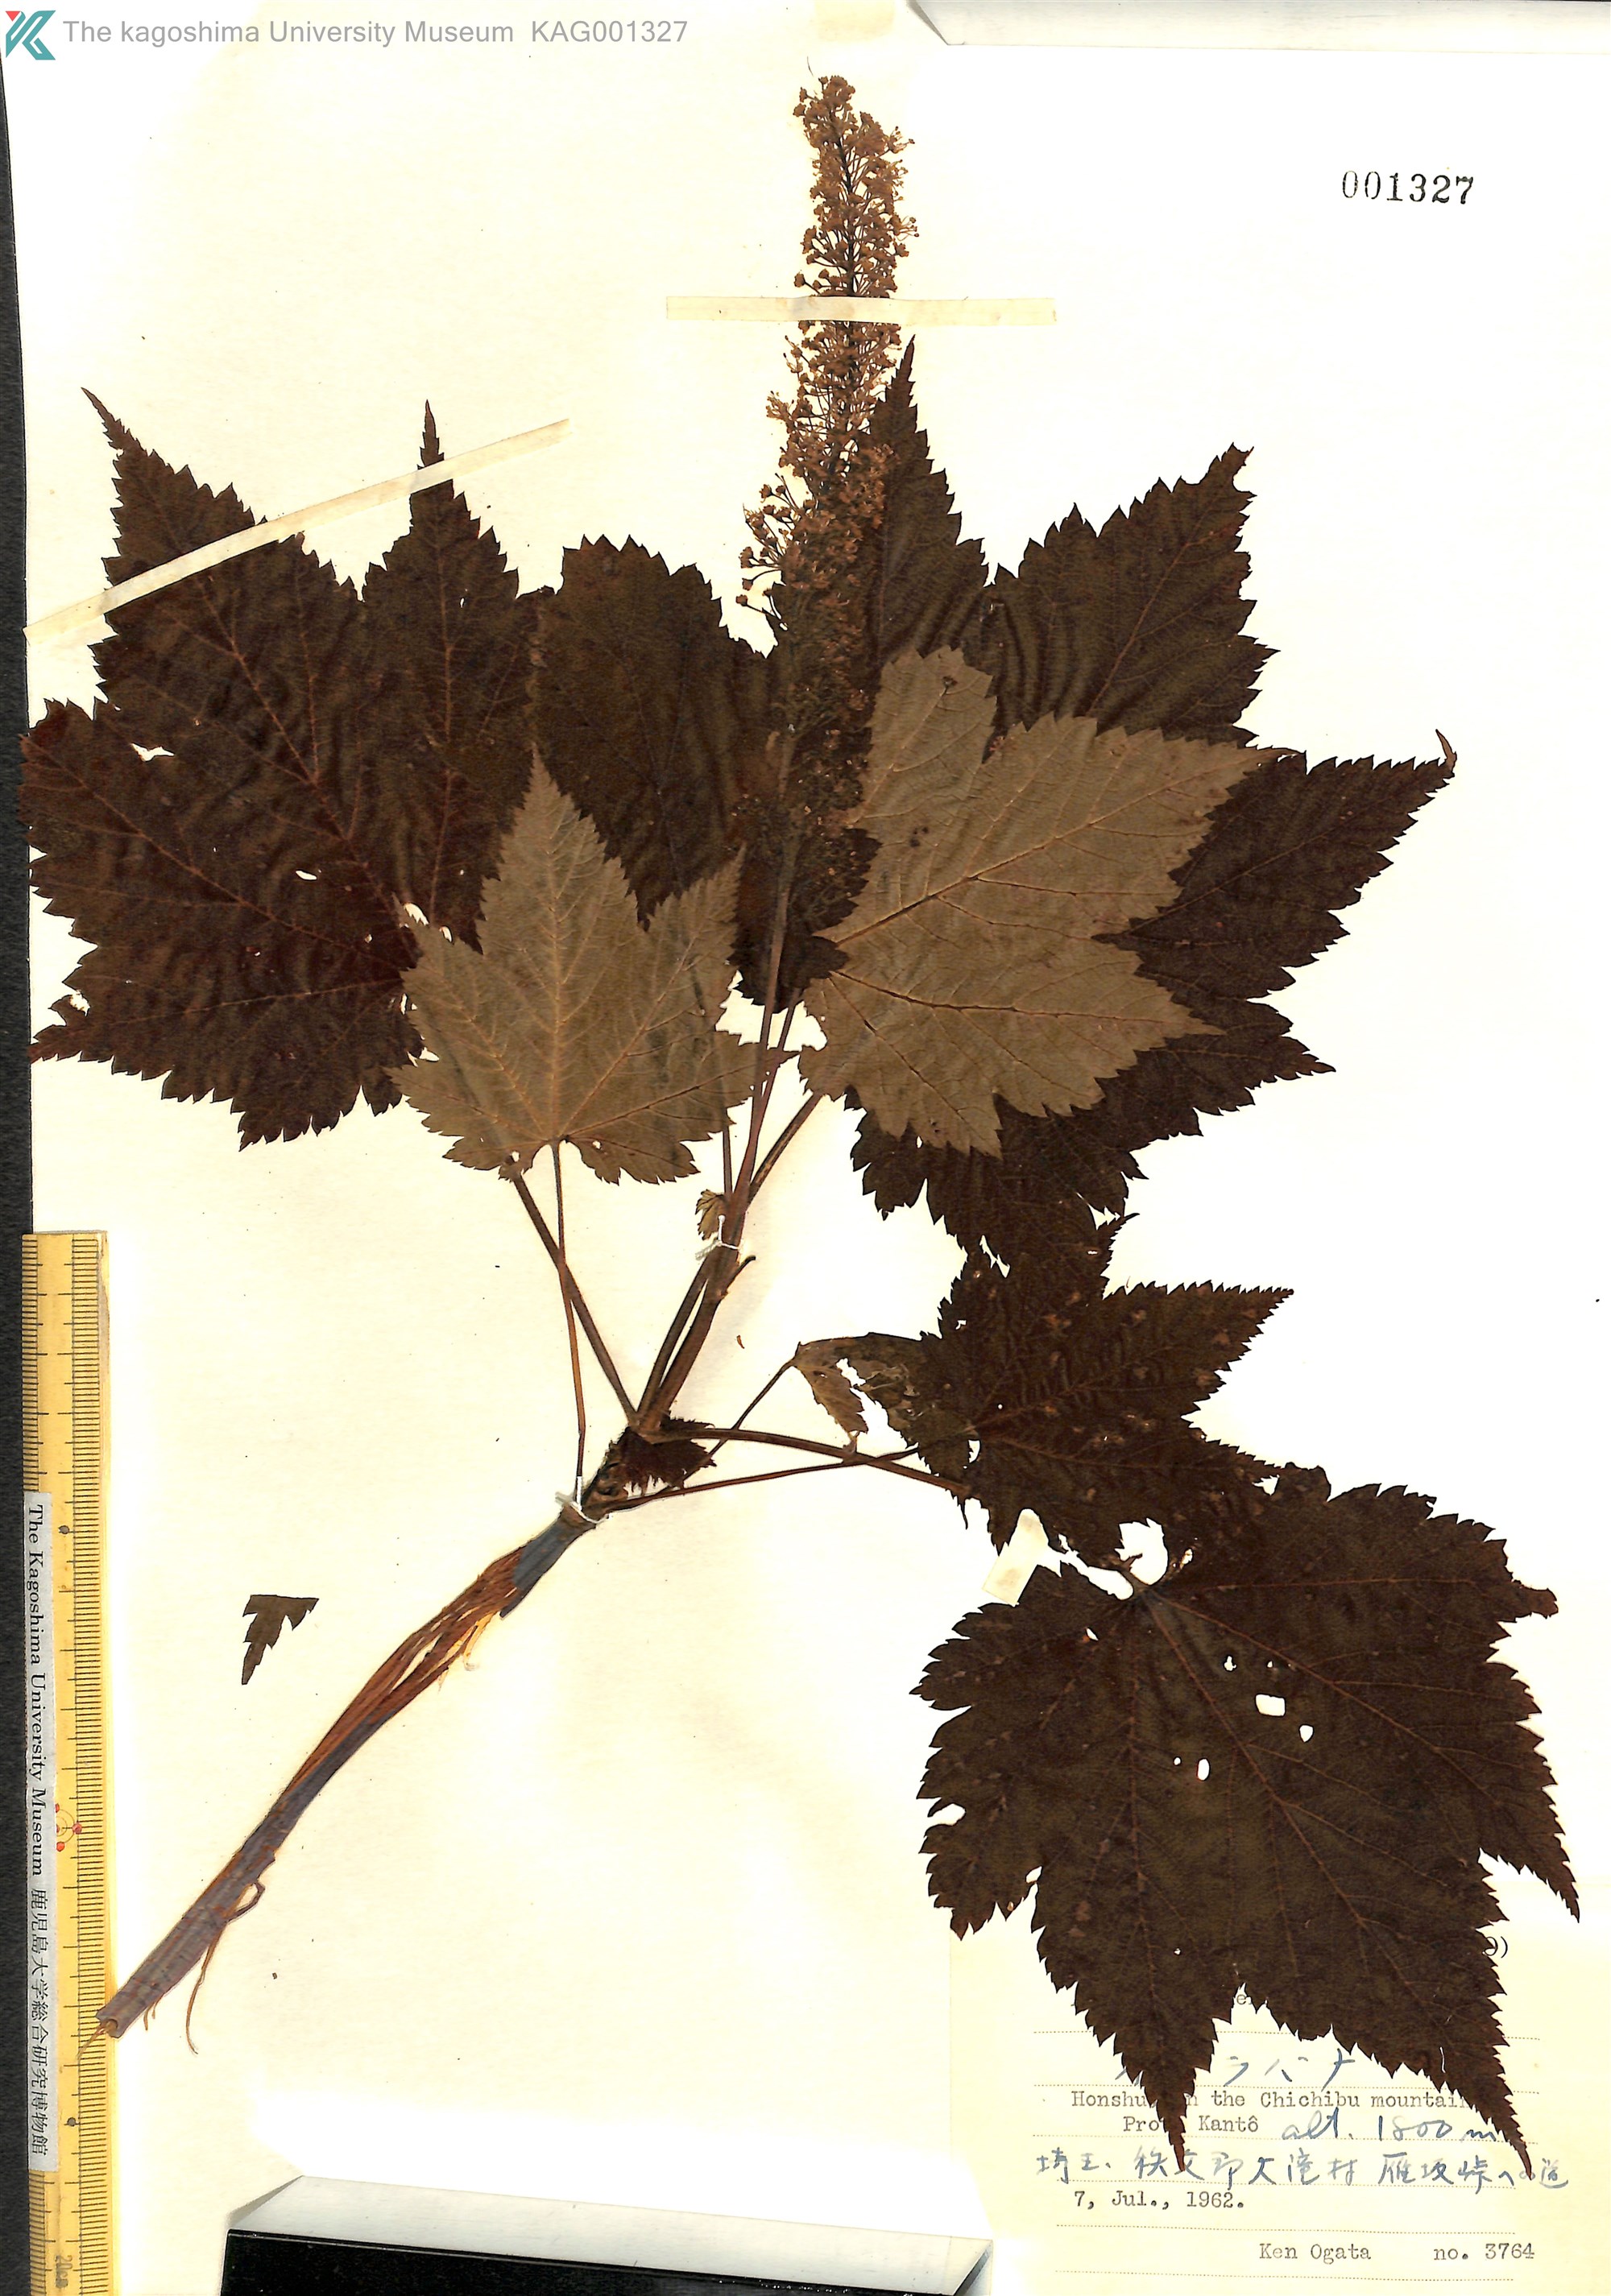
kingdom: Plantae
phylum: Tracheophyta
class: Magnoliopsida
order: Sapindales
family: Sapindaceae
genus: Acer
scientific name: Acer ukurunduense
